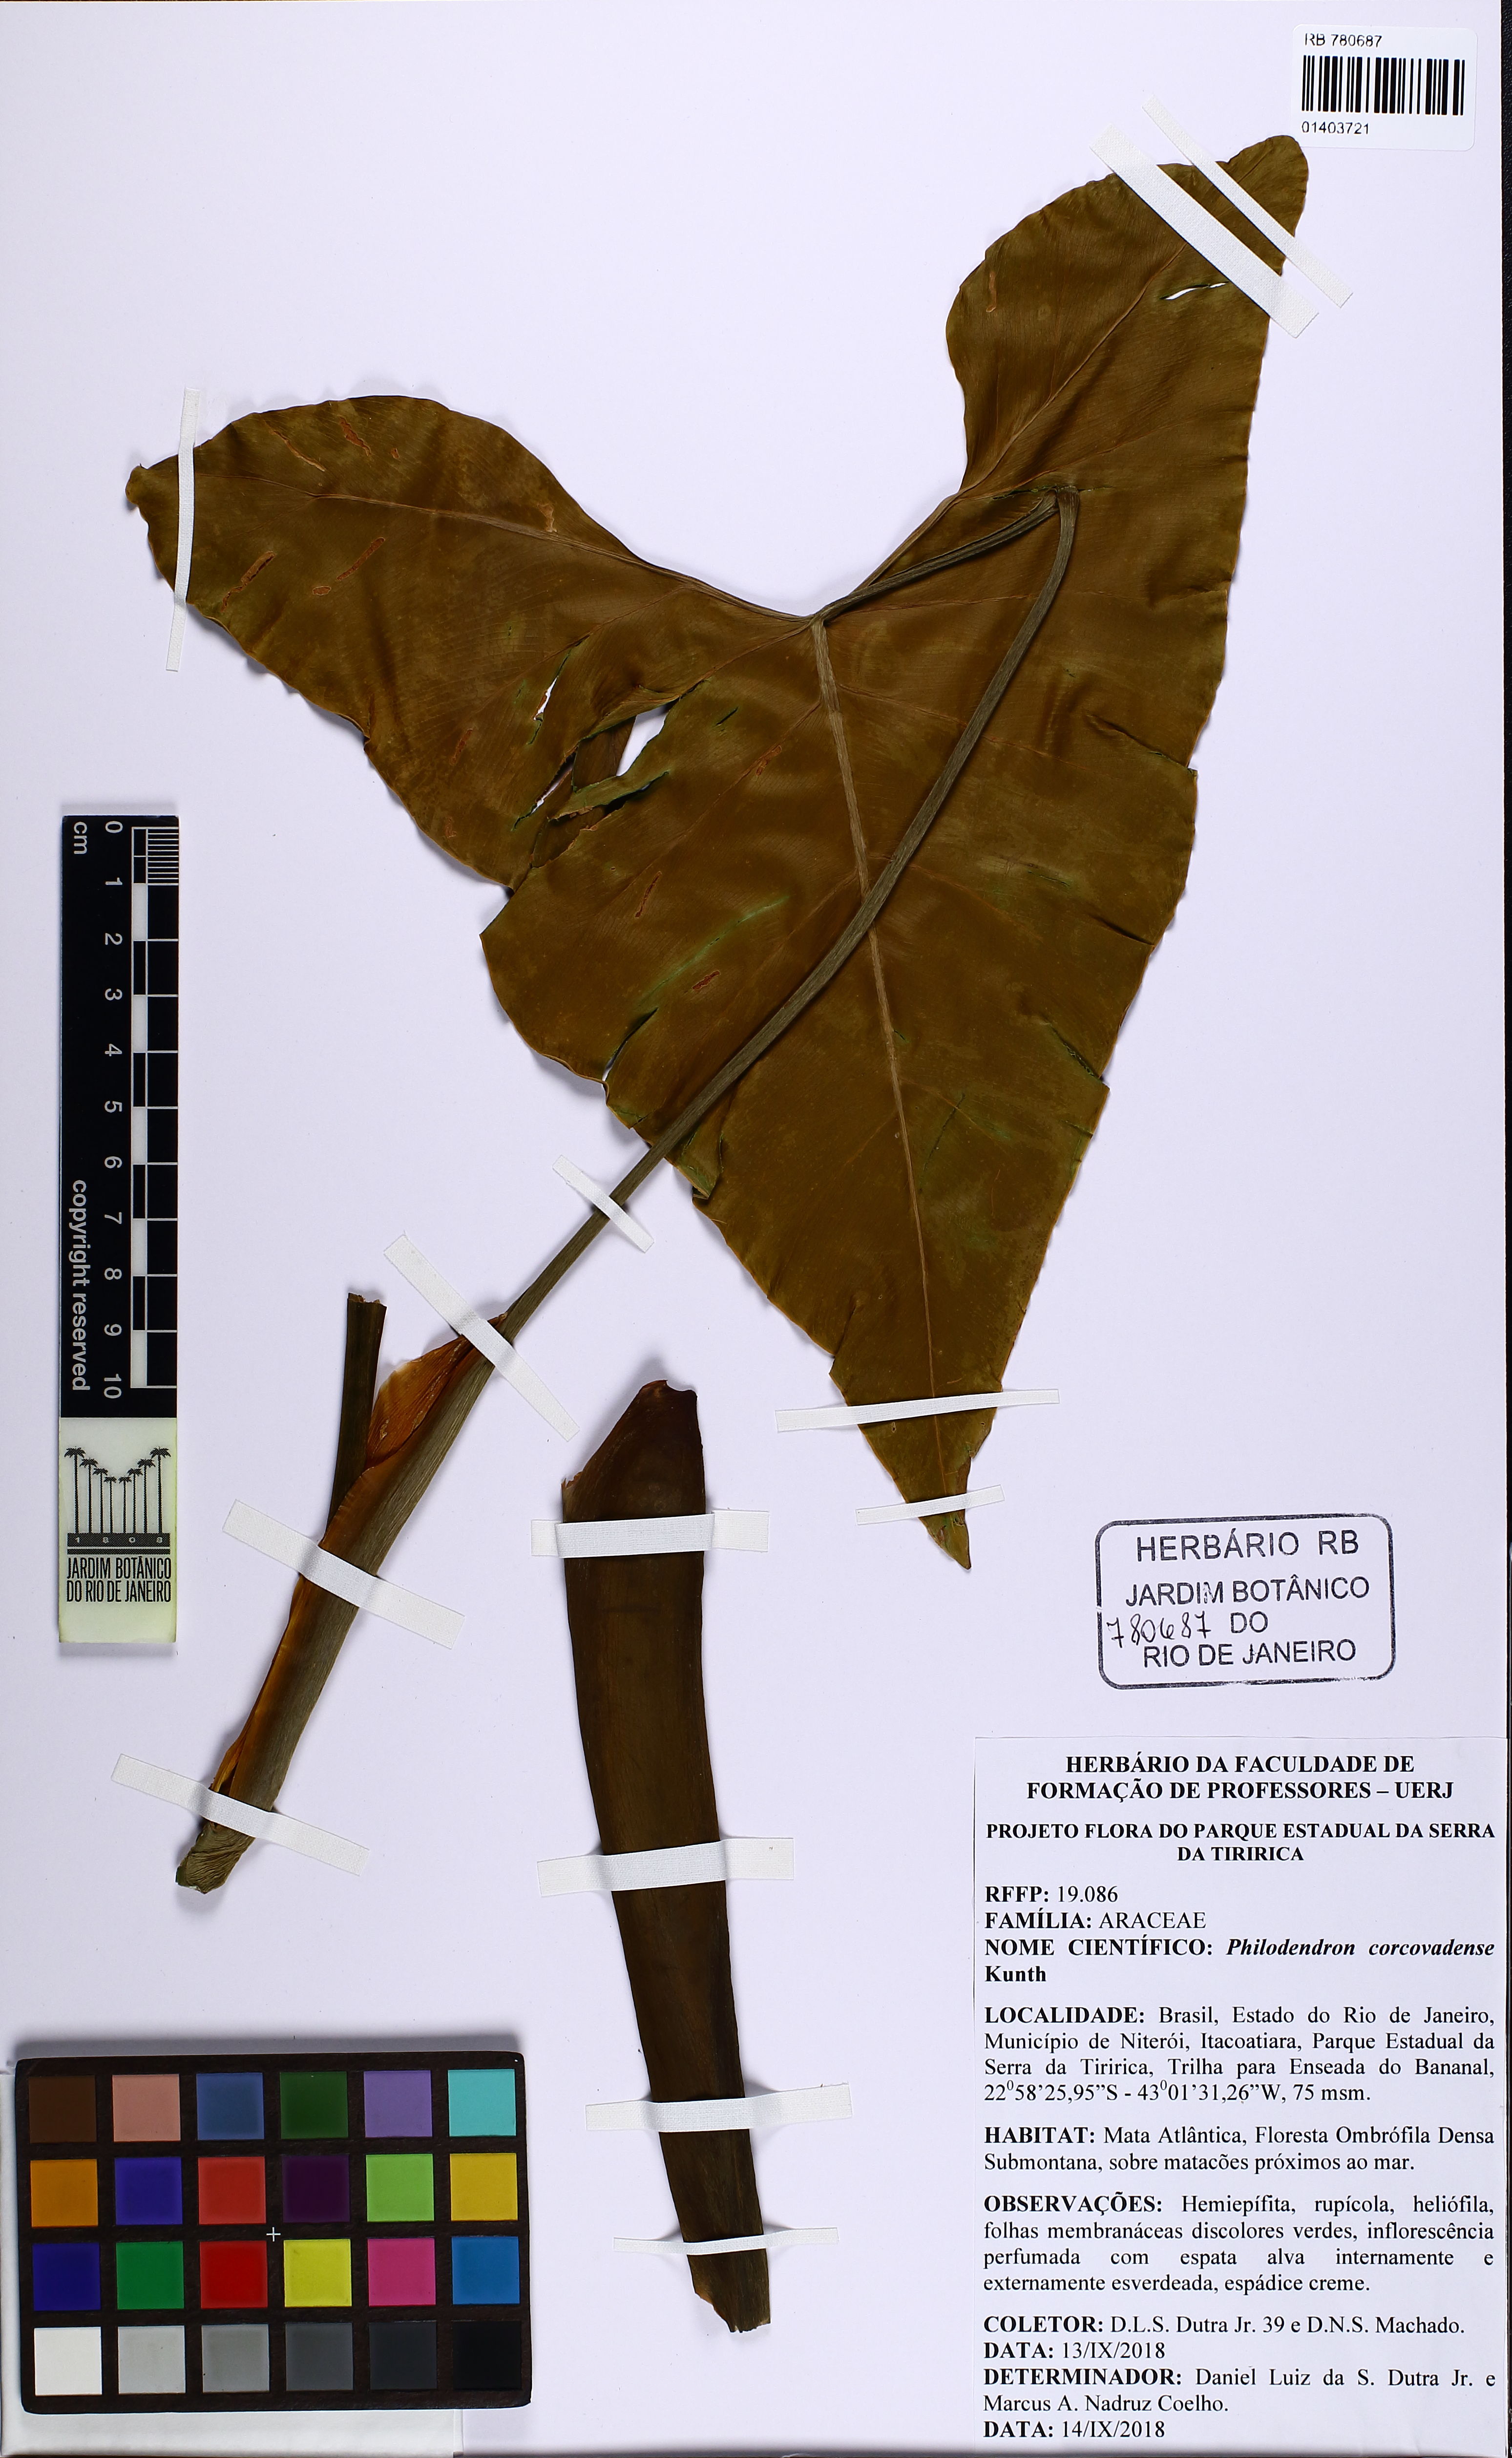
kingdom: Plantae
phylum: Tracheophyta
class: Liliopsida
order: Alismatales
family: Araceae
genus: Thaumatophyllum
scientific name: Thaumatophyllum corcovadense
